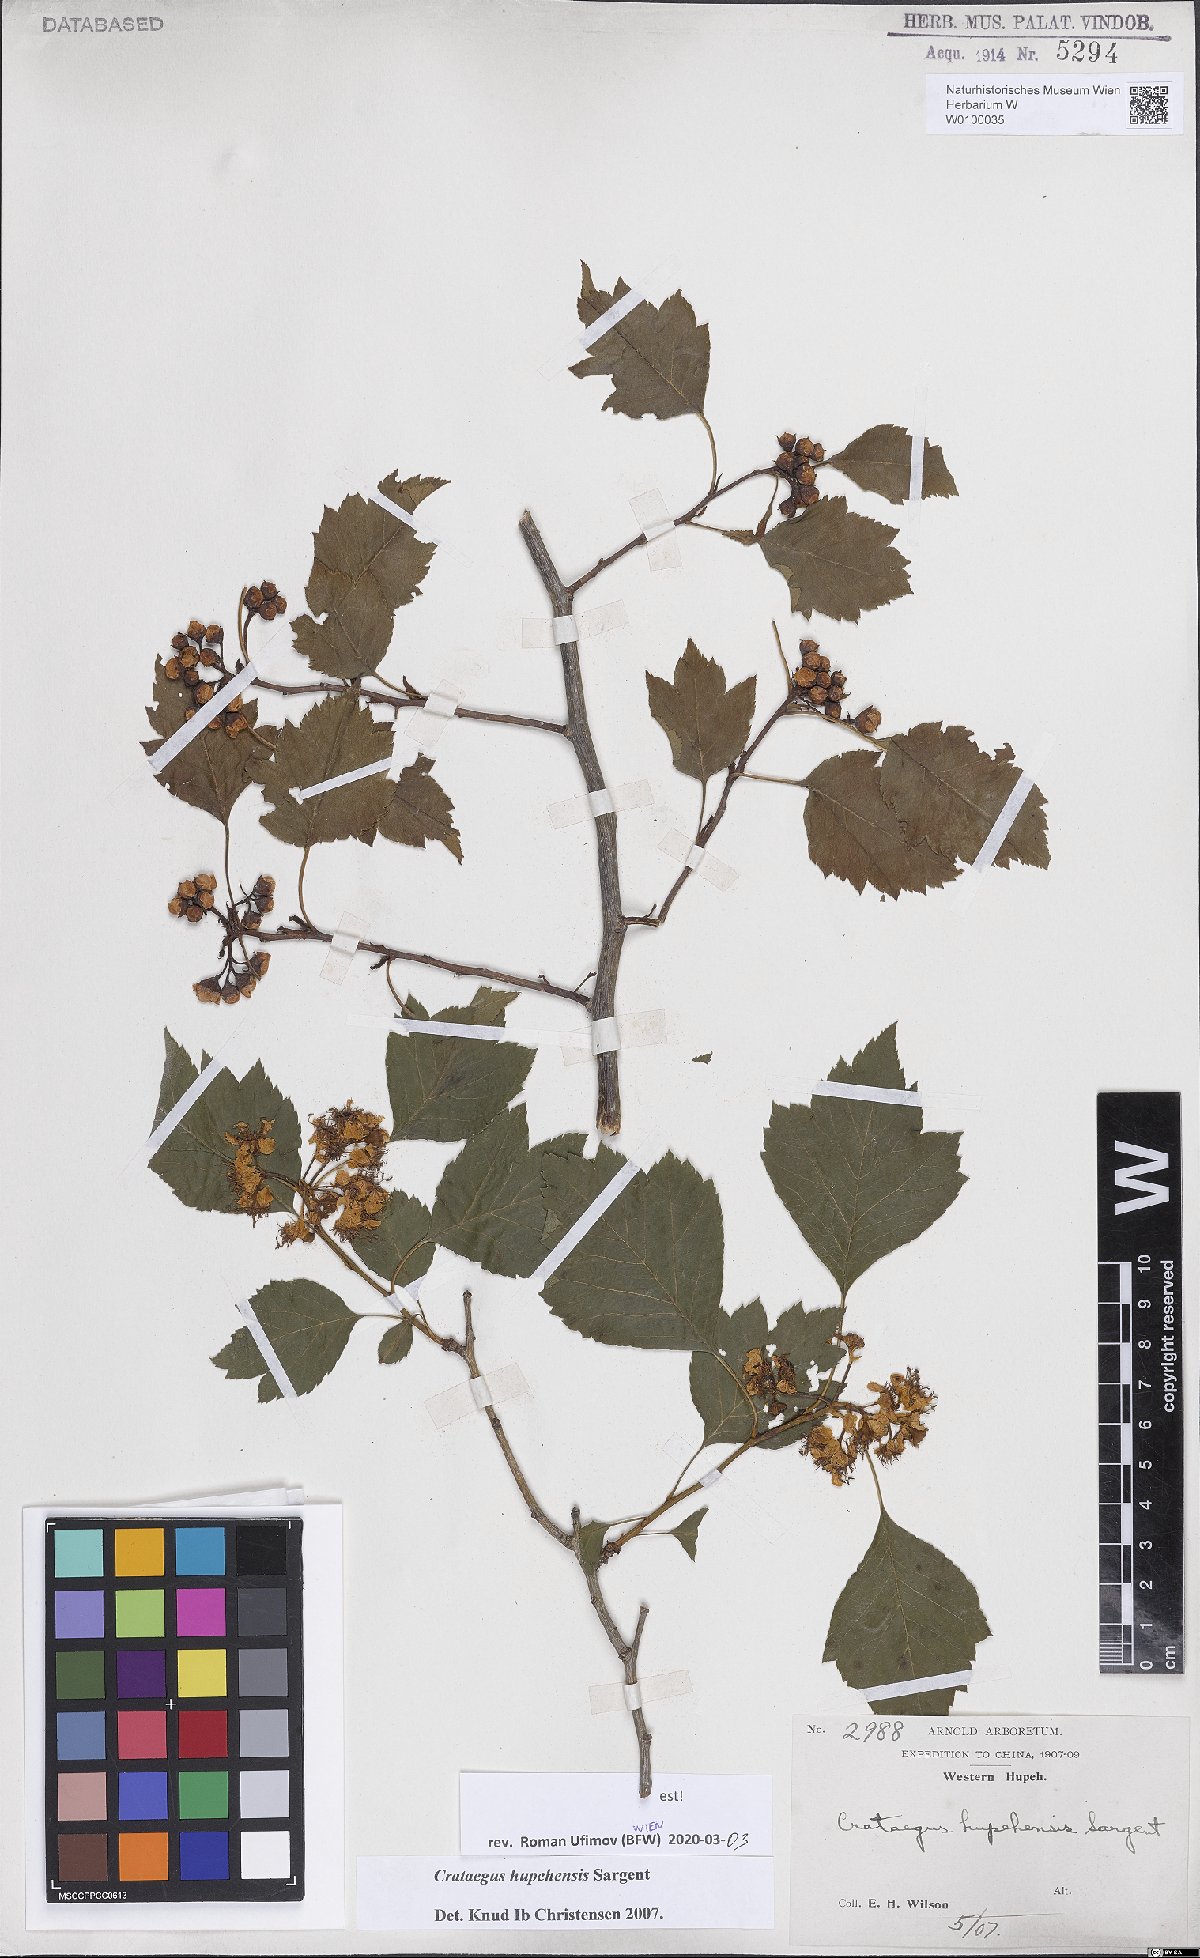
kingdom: Plantae
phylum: Tracheophyta
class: Magnoliopsida
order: Rosales
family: Rosaceae
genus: Crataegus
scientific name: Crataegus hupehensis
